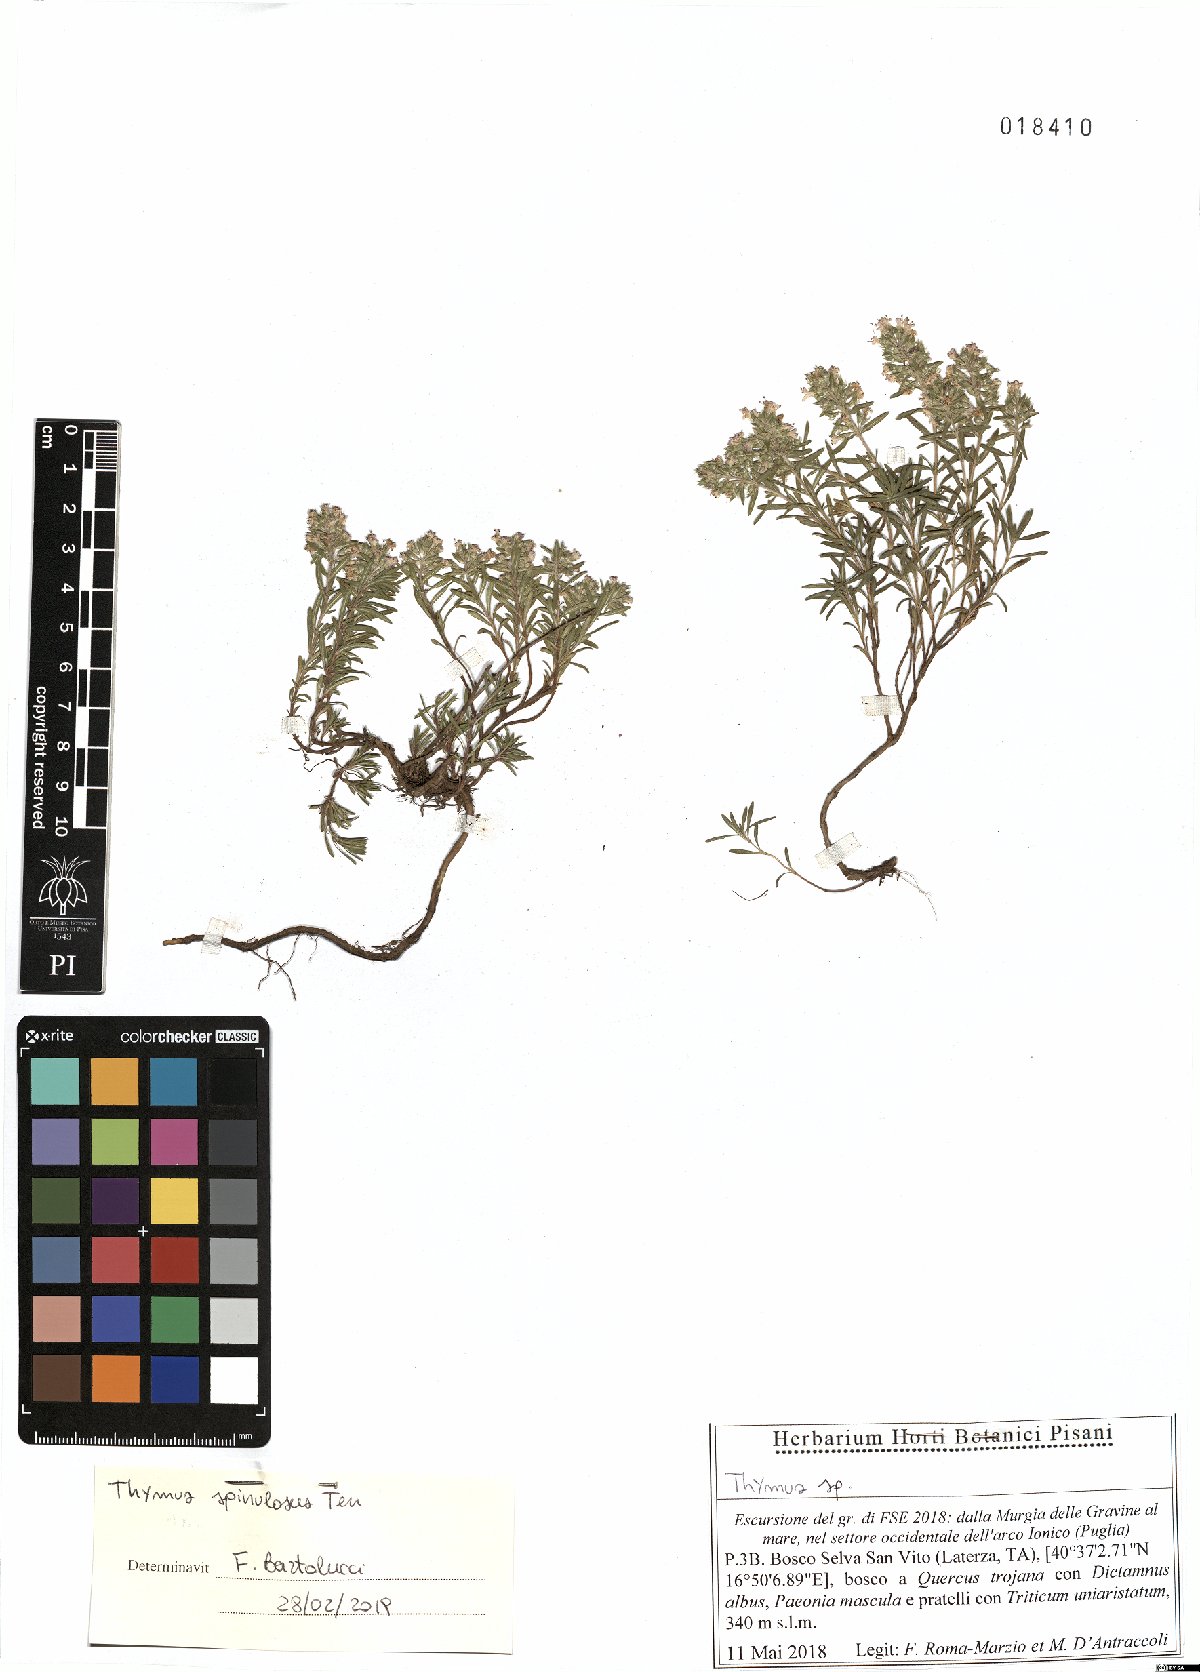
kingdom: Plantae
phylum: Tracheophyta
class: Magnoliopsida
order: Lamiales
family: Lamiaceae
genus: Thymus
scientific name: Thymus spinulosus
